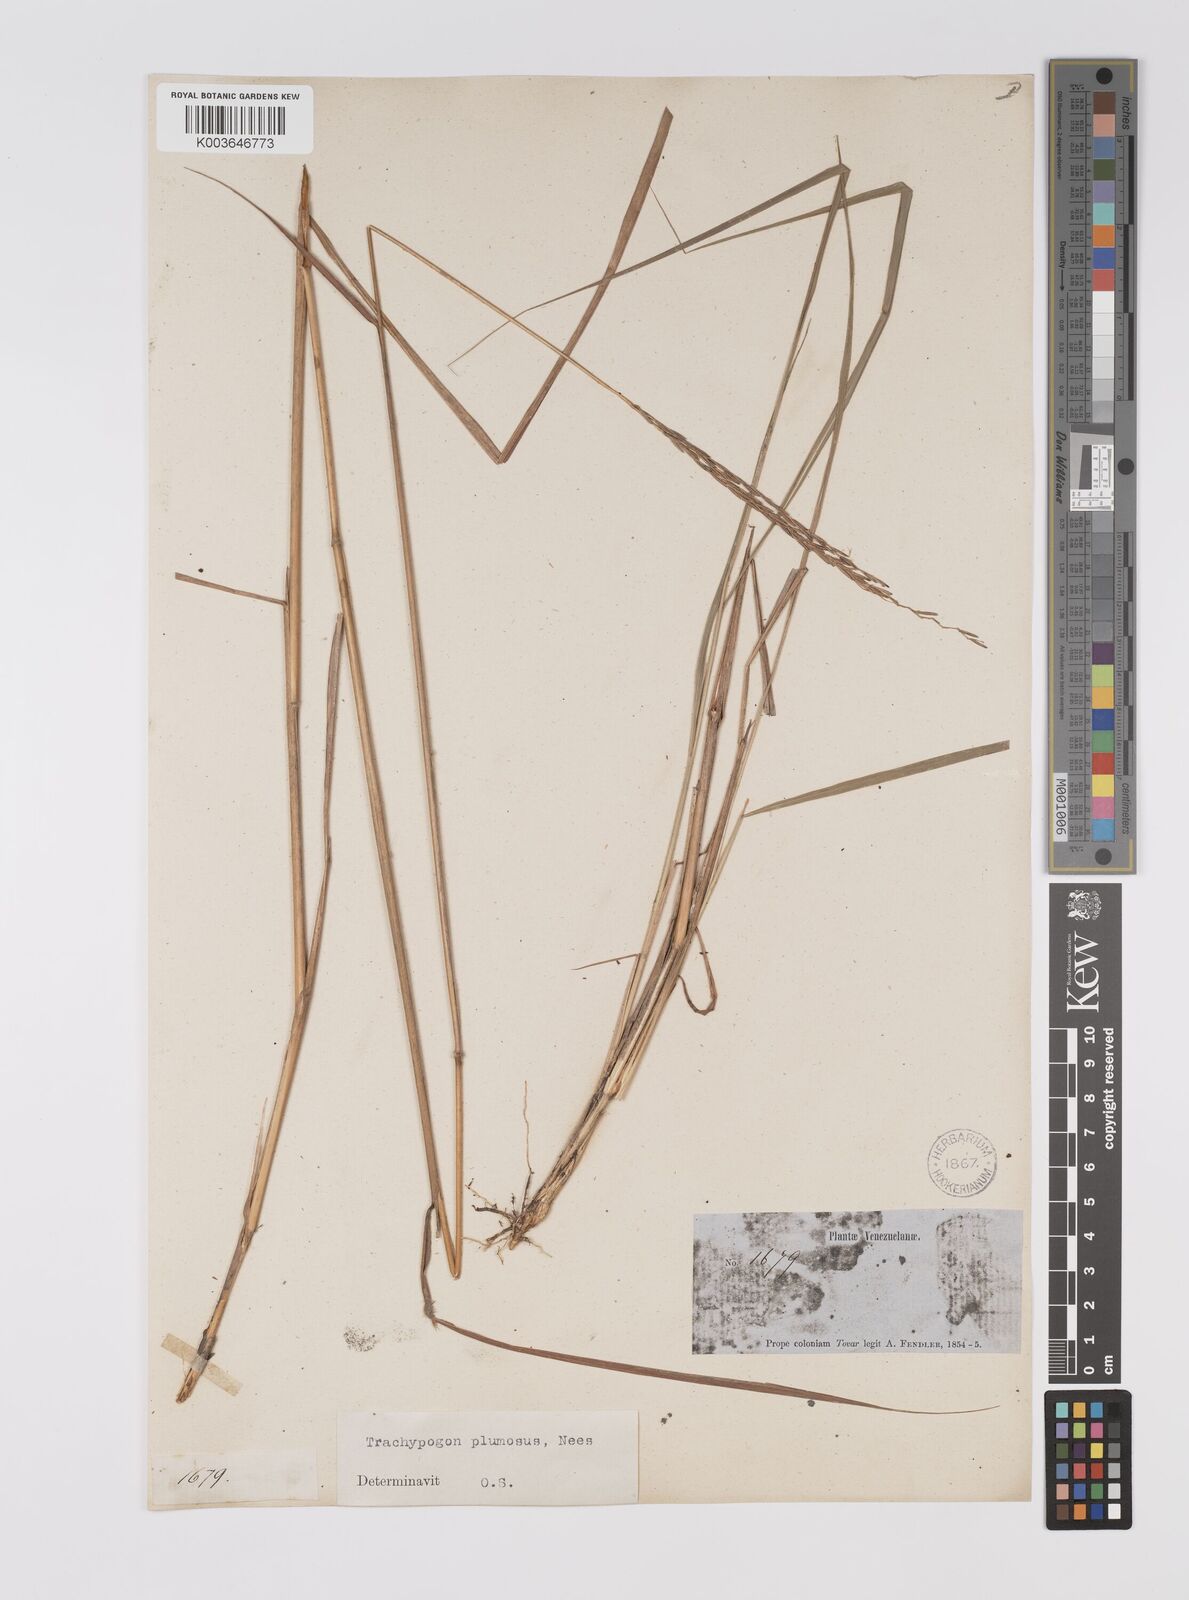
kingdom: Plantae
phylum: Tracheophyta
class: Liliopsida
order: Poales
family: Poaceae
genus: Trachypogon
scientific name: Trachypogon spicatus
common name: Crinkle-awn
